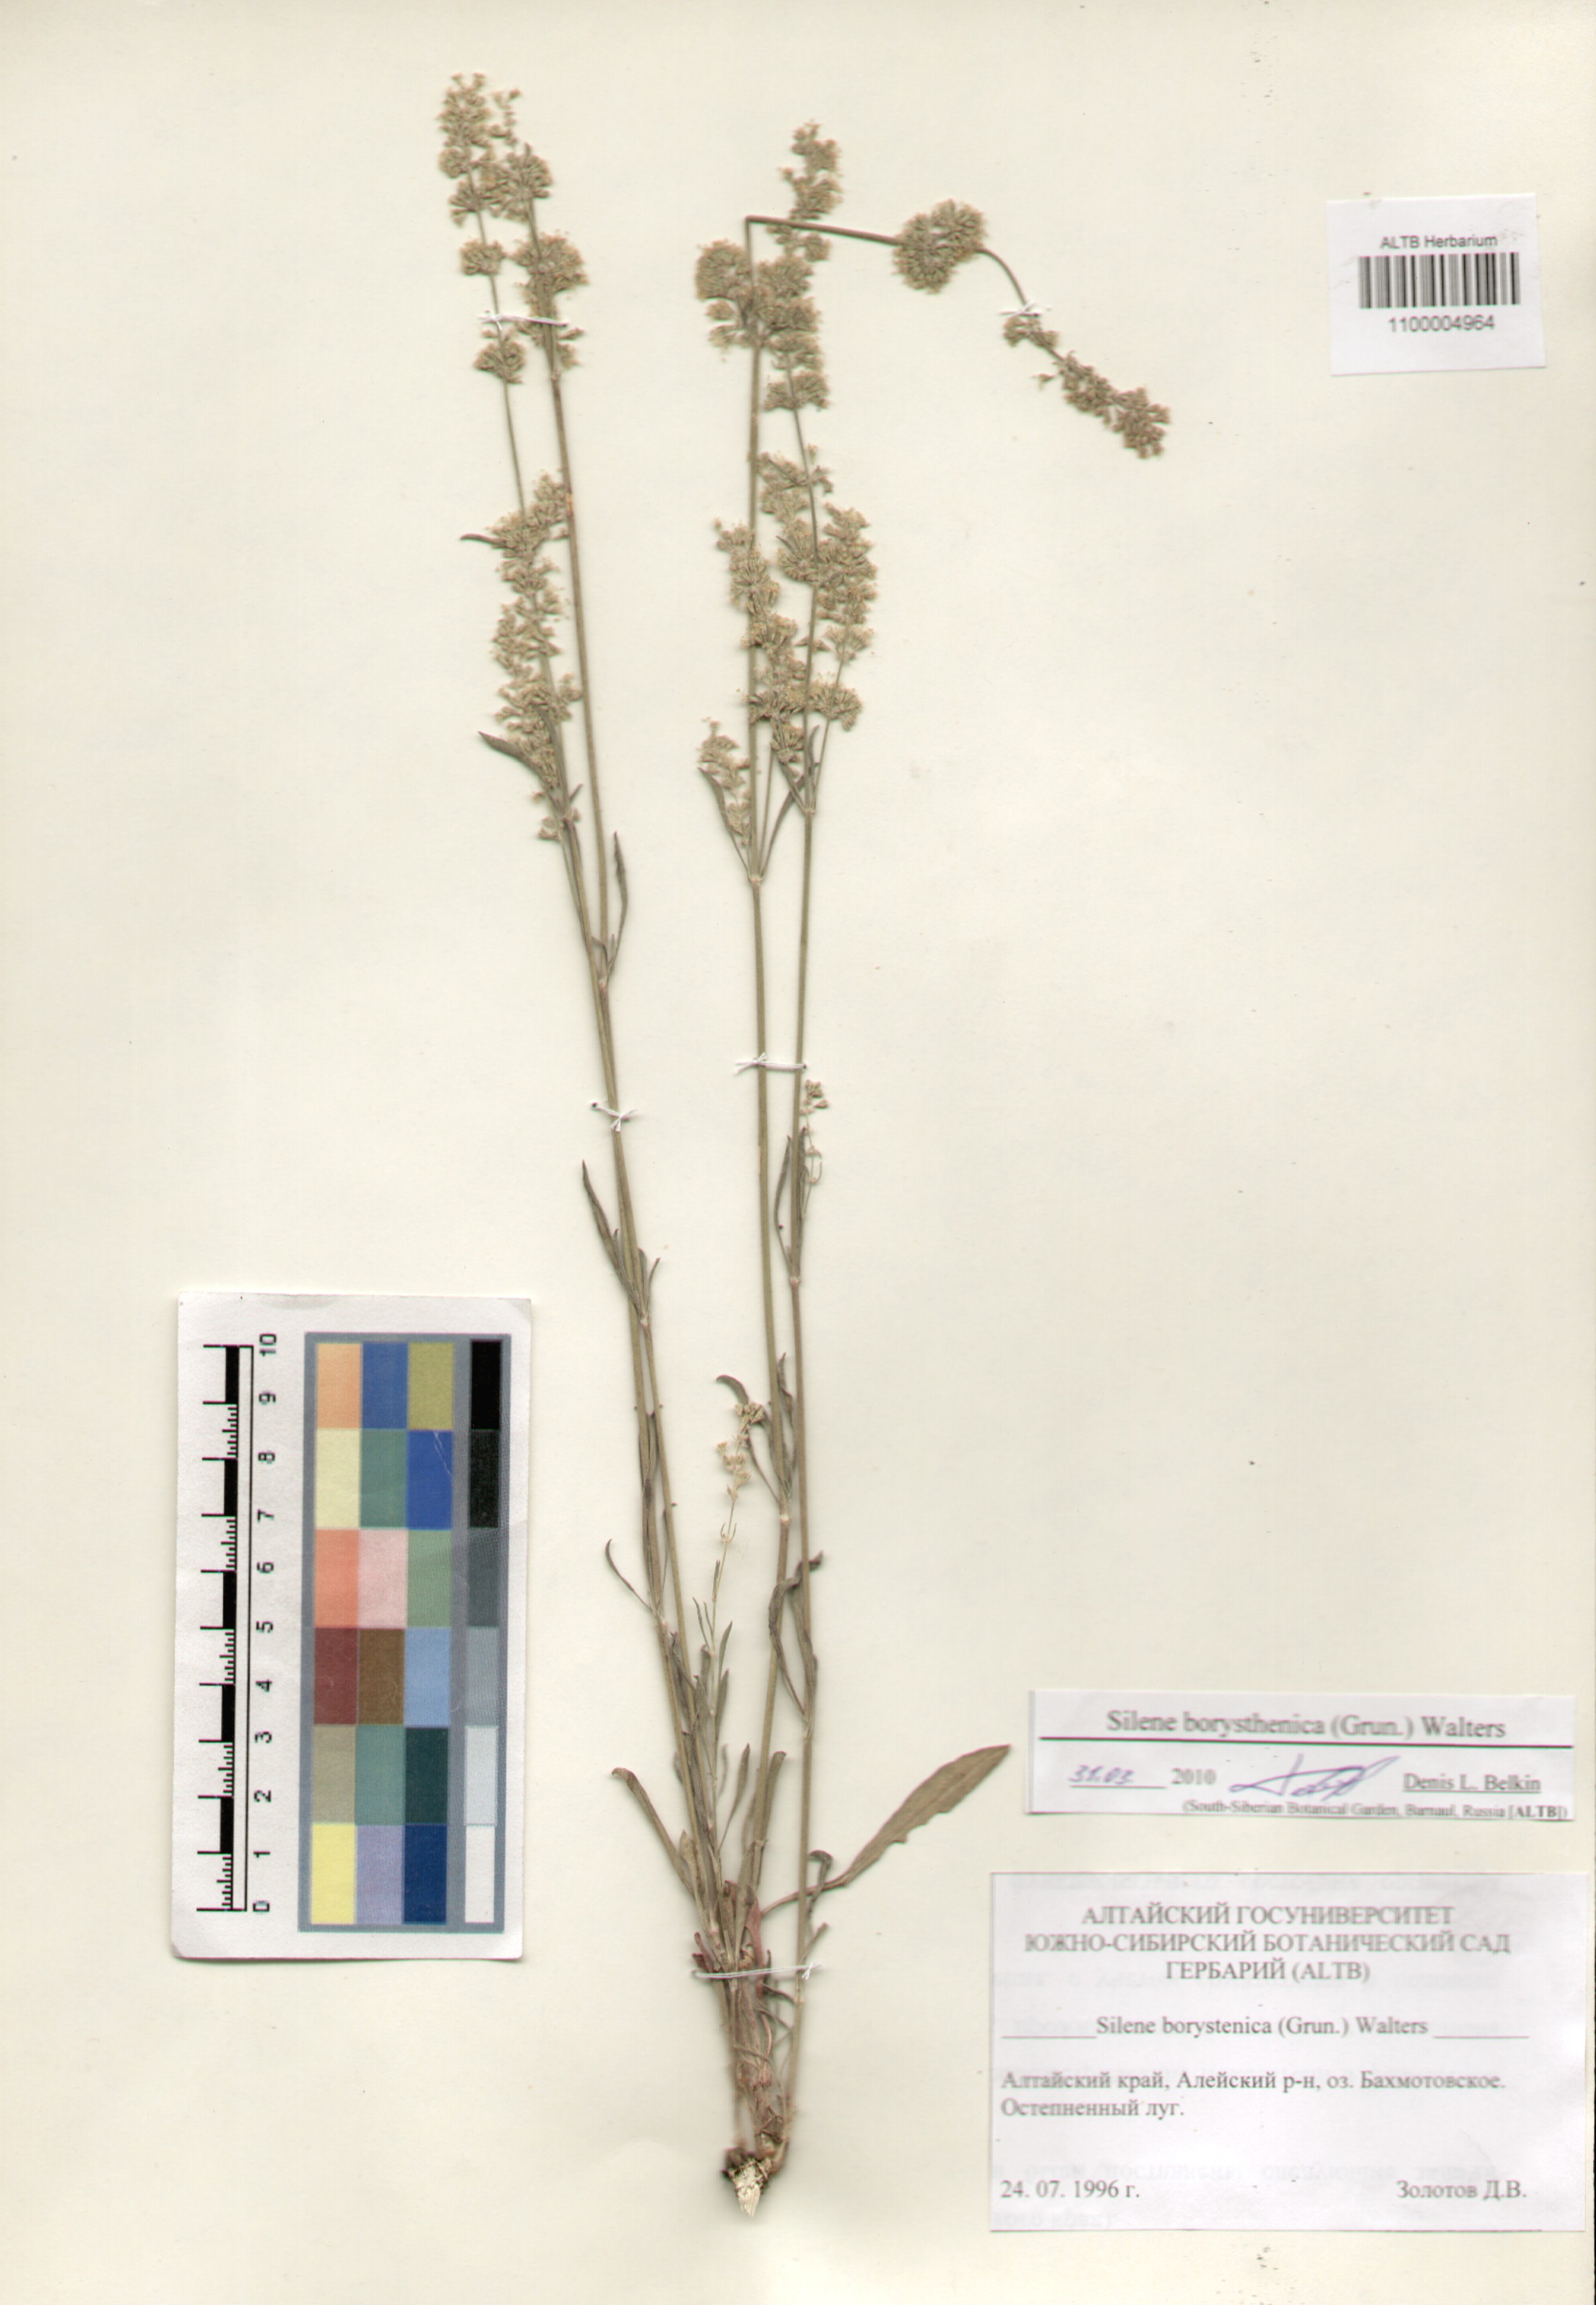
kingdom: Plantae
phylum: Tracheophyta
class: Magnoliopsida
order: Caryophyllales
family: Caryophyllaceae
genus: Silene
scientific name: Silene borysthenica
